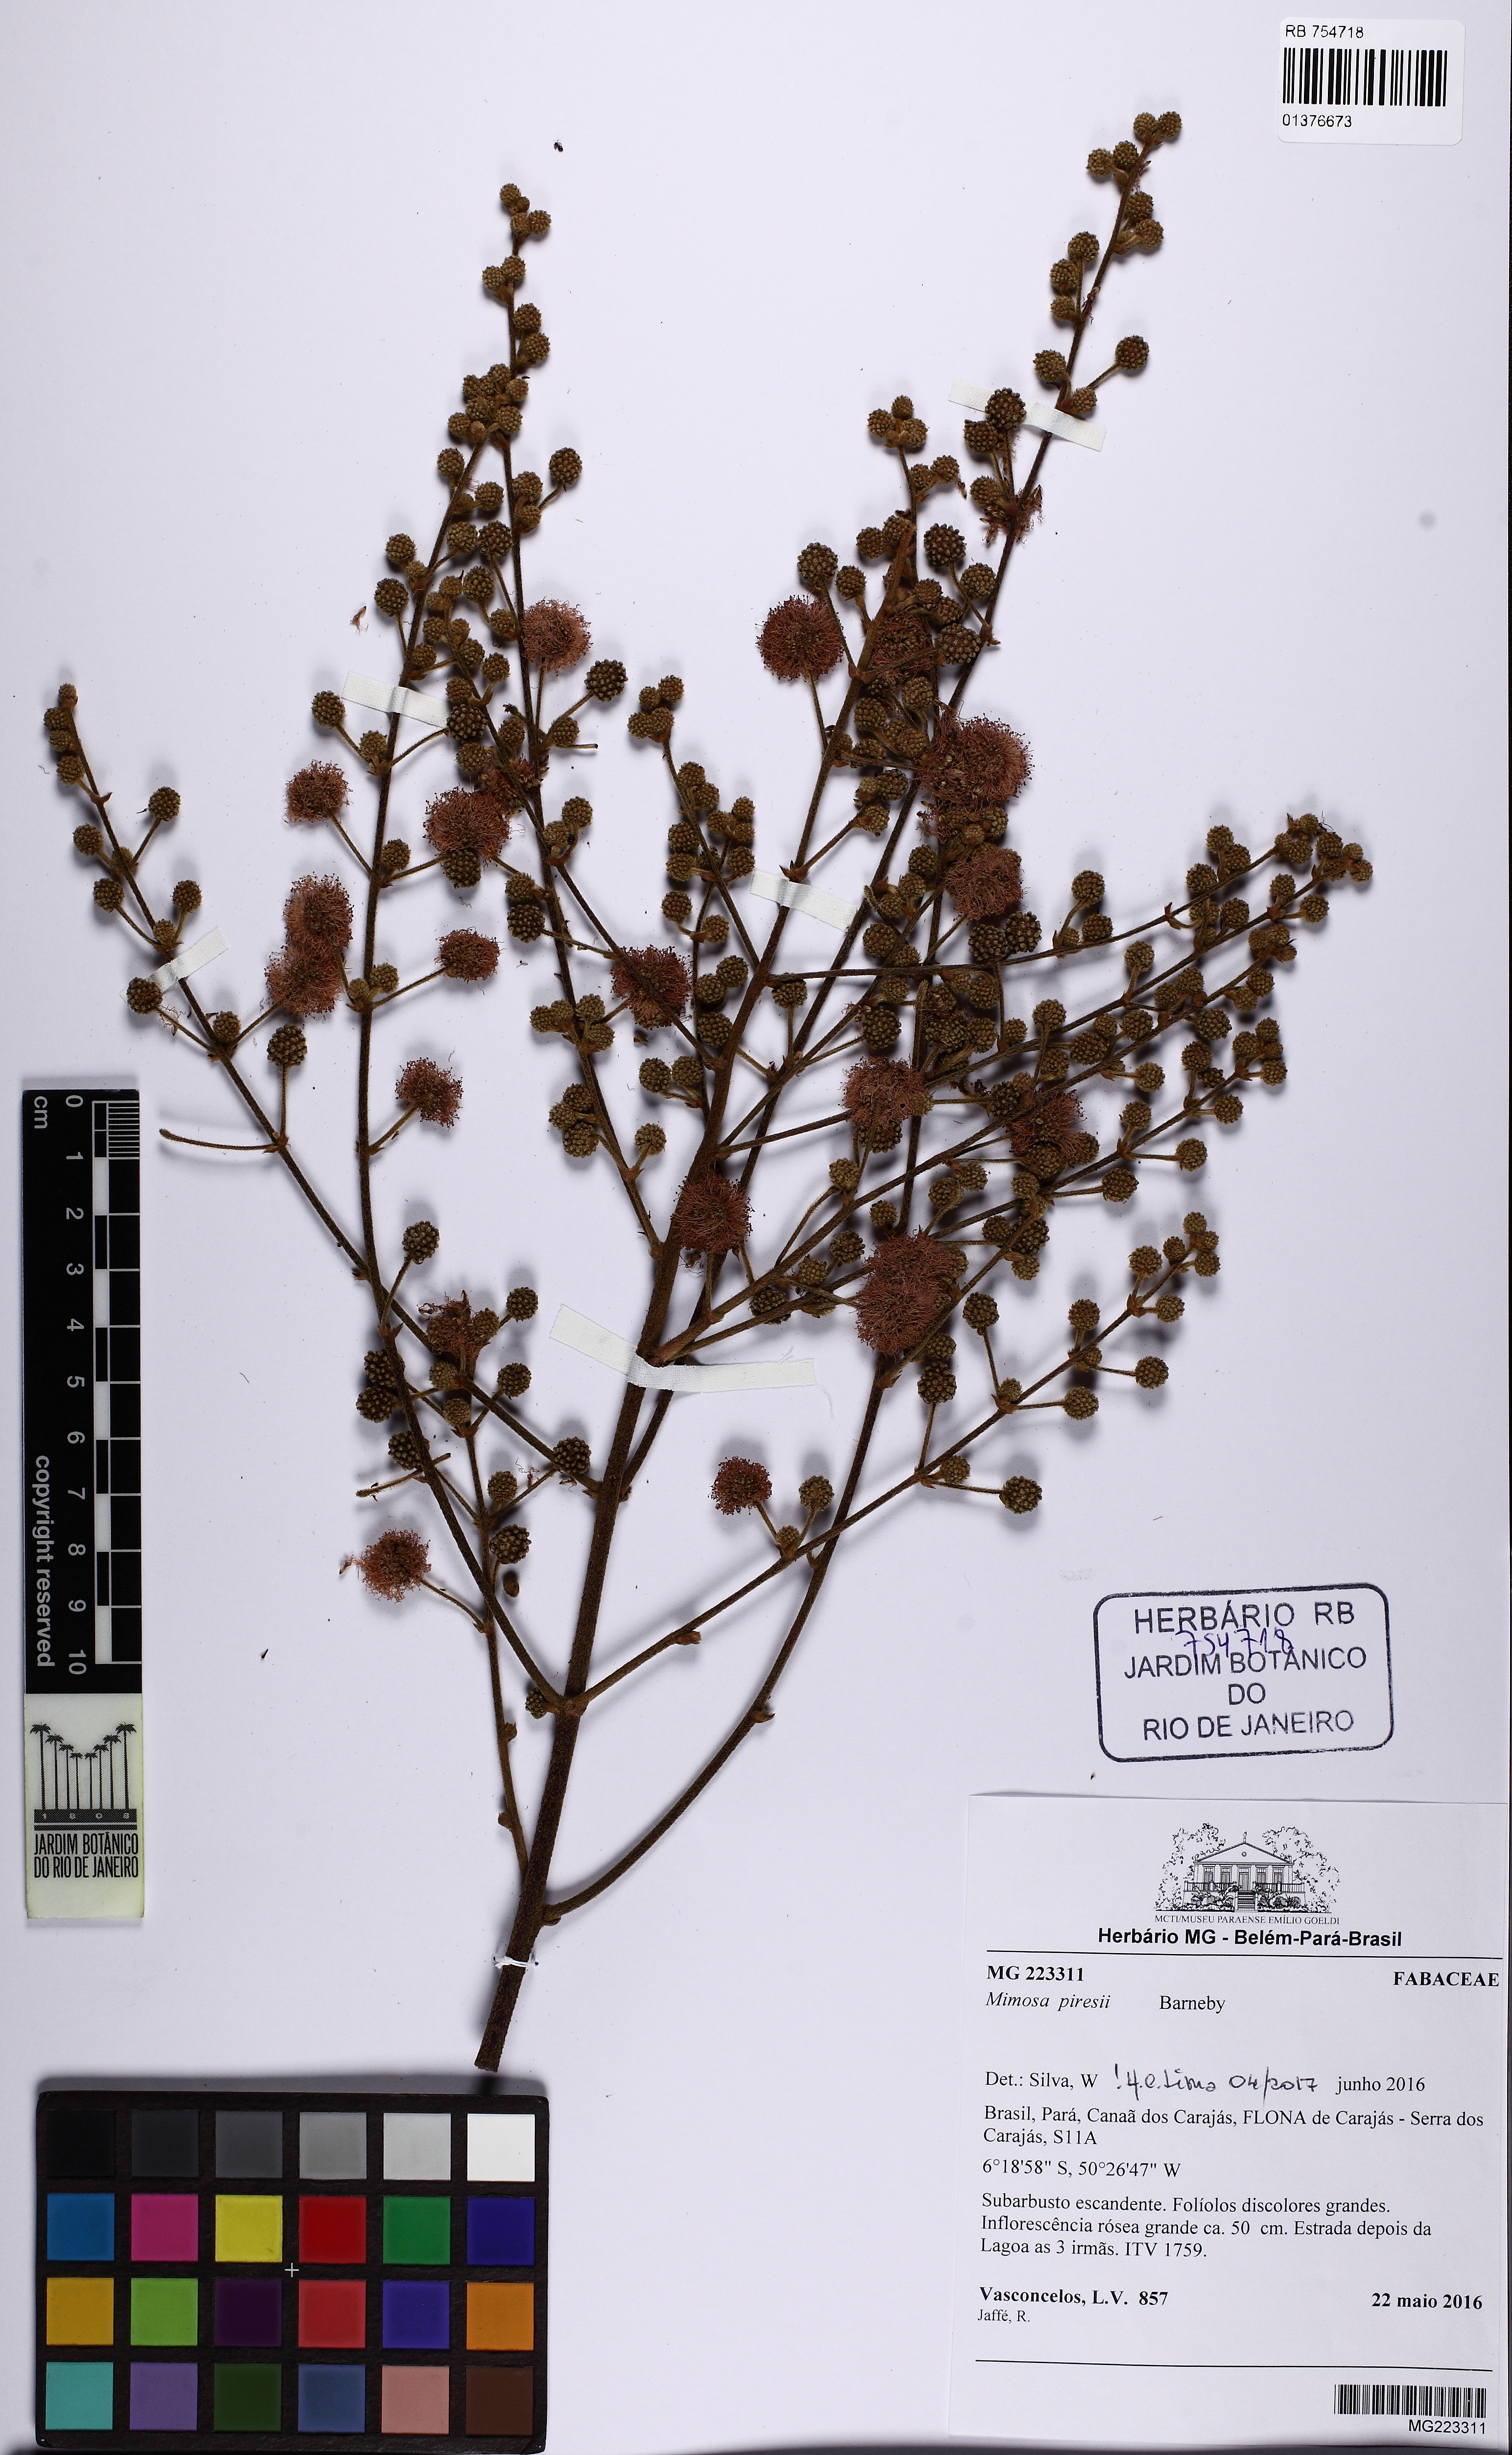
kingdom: Plantae
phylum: Tracheophyta
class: Magnoliopsida
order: Fabales
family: Fabaceae
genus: Mimosa
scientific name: Mimosa piresii
